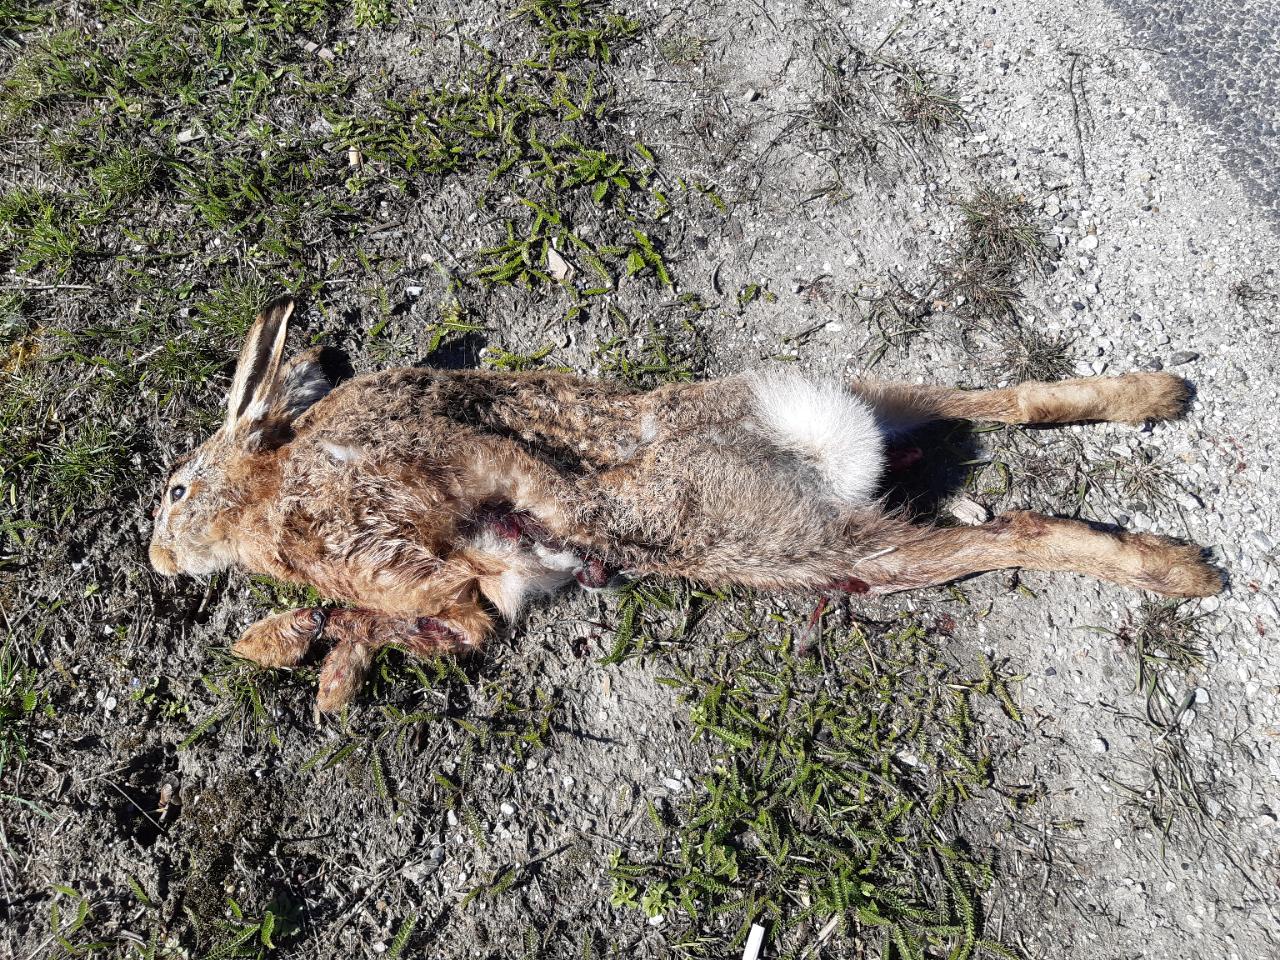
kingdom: Animalia
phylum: Chordata
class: Mammalia
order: Lagomorpha
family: Leporidae
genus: Lepus
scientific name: Lepus europaeus
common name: European hare
